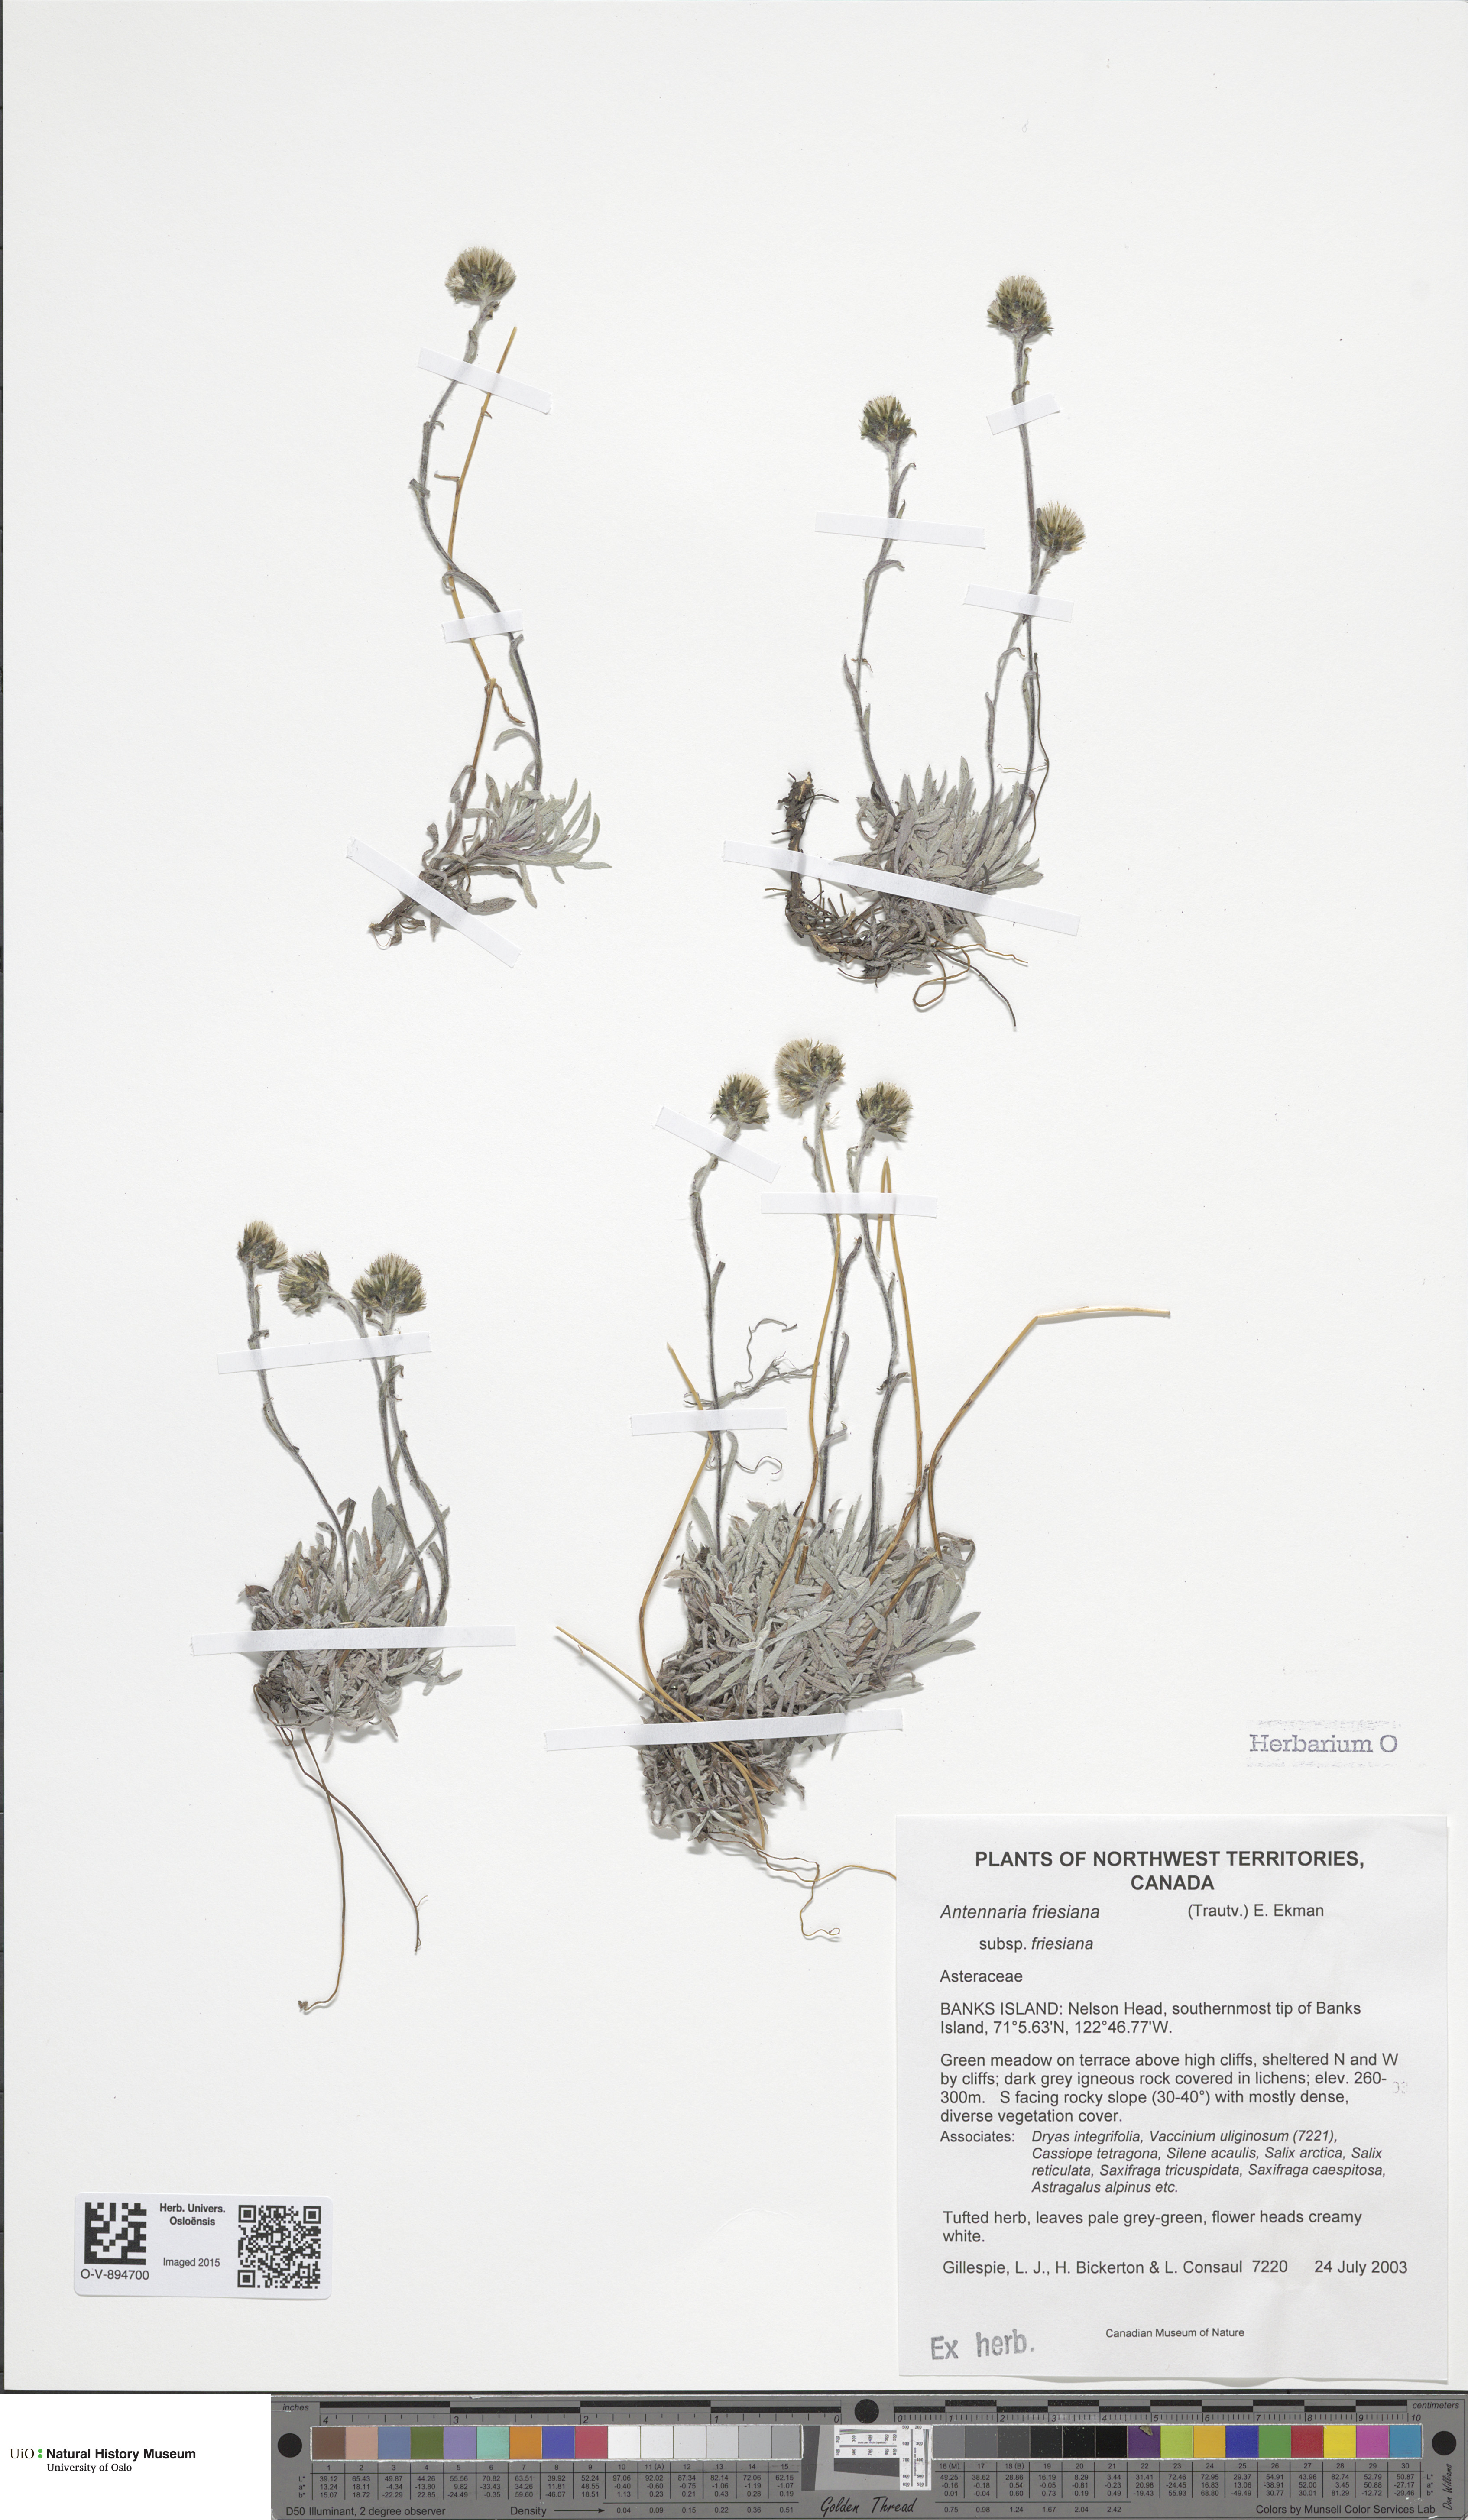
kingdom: Plantae
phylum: Tracheophyta
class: Magnoliopsida
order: Asterales
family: Asteraceae
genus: Antennaria
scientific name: Antennaria friesiana
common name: Fries' pussytoes
